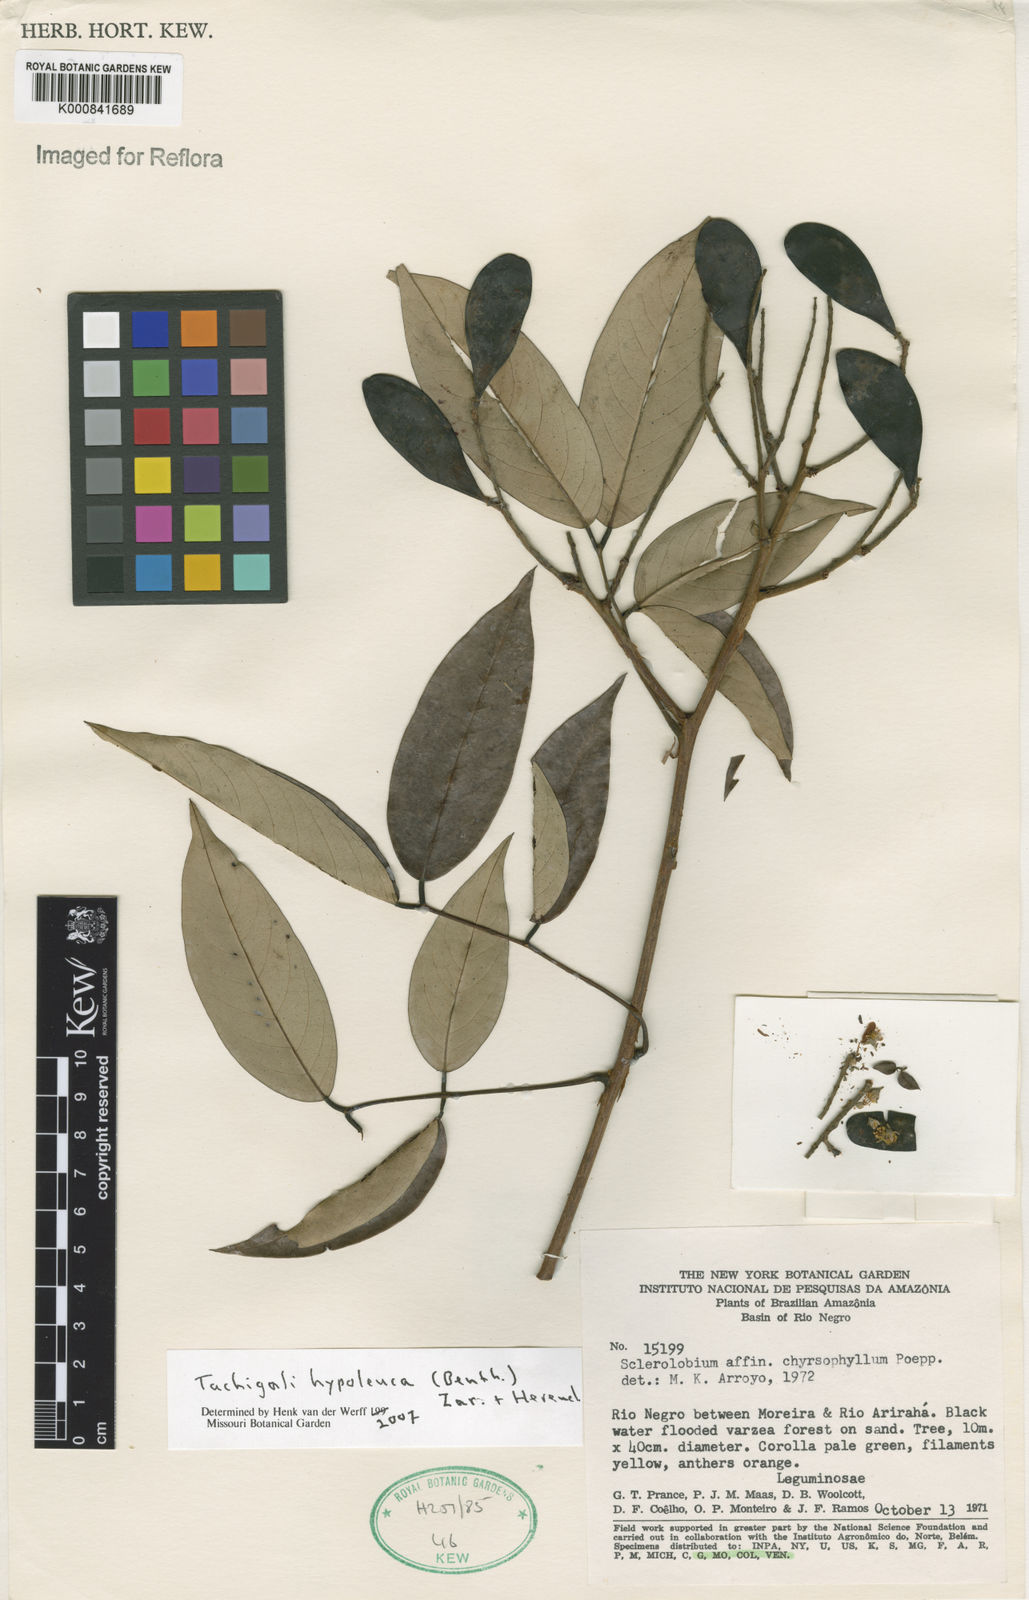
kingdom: Plantae
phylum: Tracheophyta
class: Magnoliopsida
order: Fabales
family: Fabaceae
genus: Tachigali
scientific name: Tachigali hypoleuca
